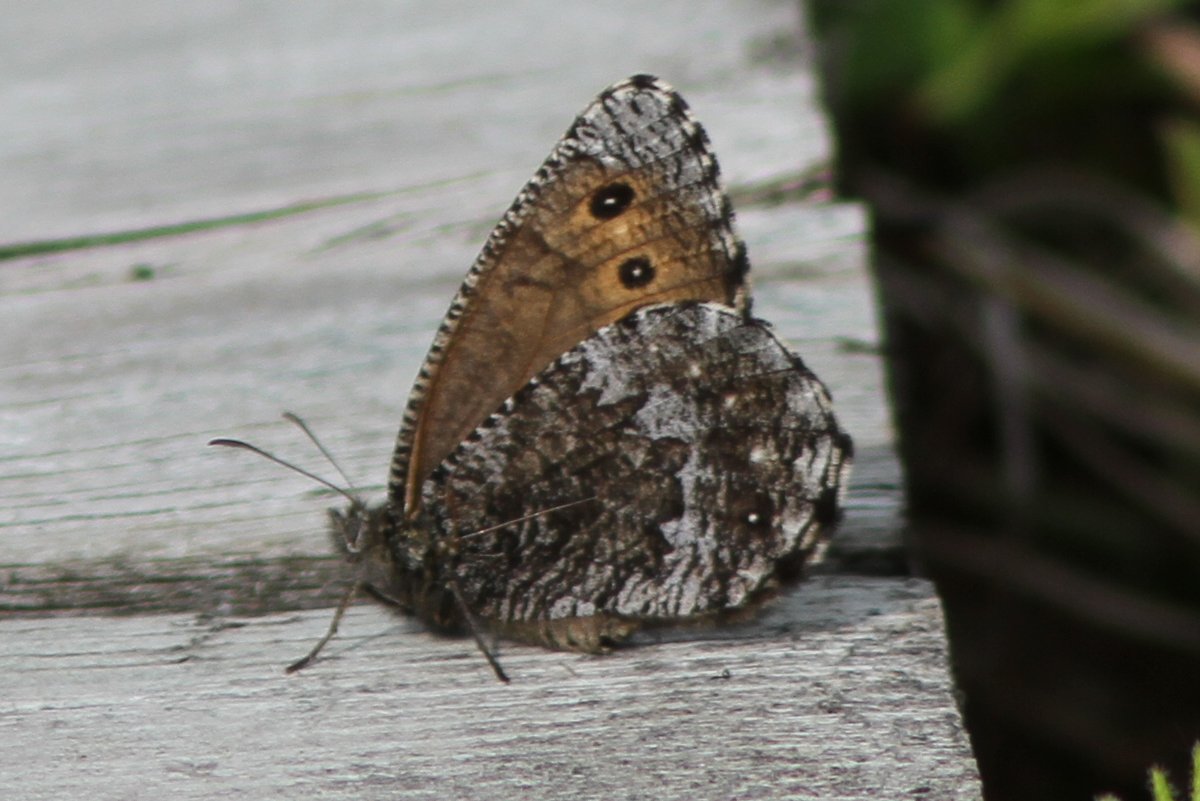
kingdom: Animalia
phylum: Arthropoda
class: Insecta
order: Lepidoptera
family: Nymphalidae
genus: Oeneis
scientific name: Oeneis jutta
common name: Jutta Arctic
